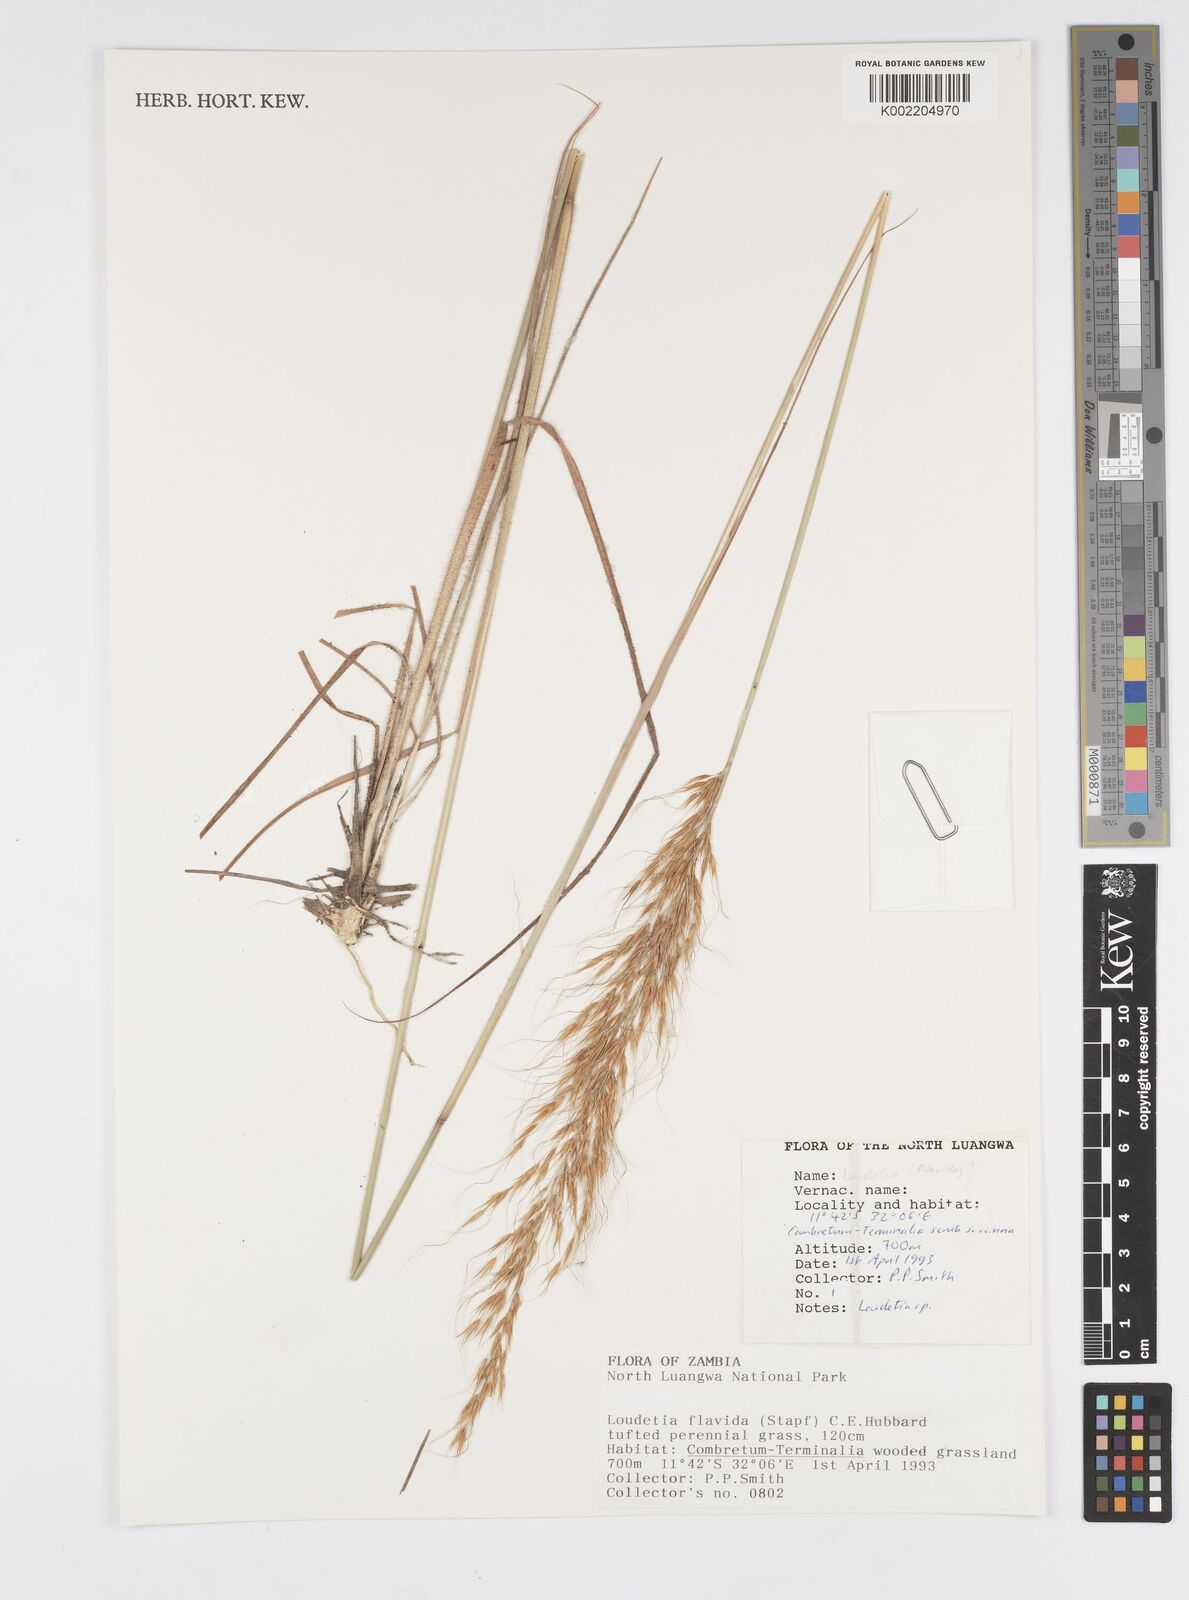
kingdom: Plantae
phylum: Tracheophyta
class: Liliopsida
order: Poales
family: Poaceae
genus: Loudetia
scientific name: Loudetia flavida
